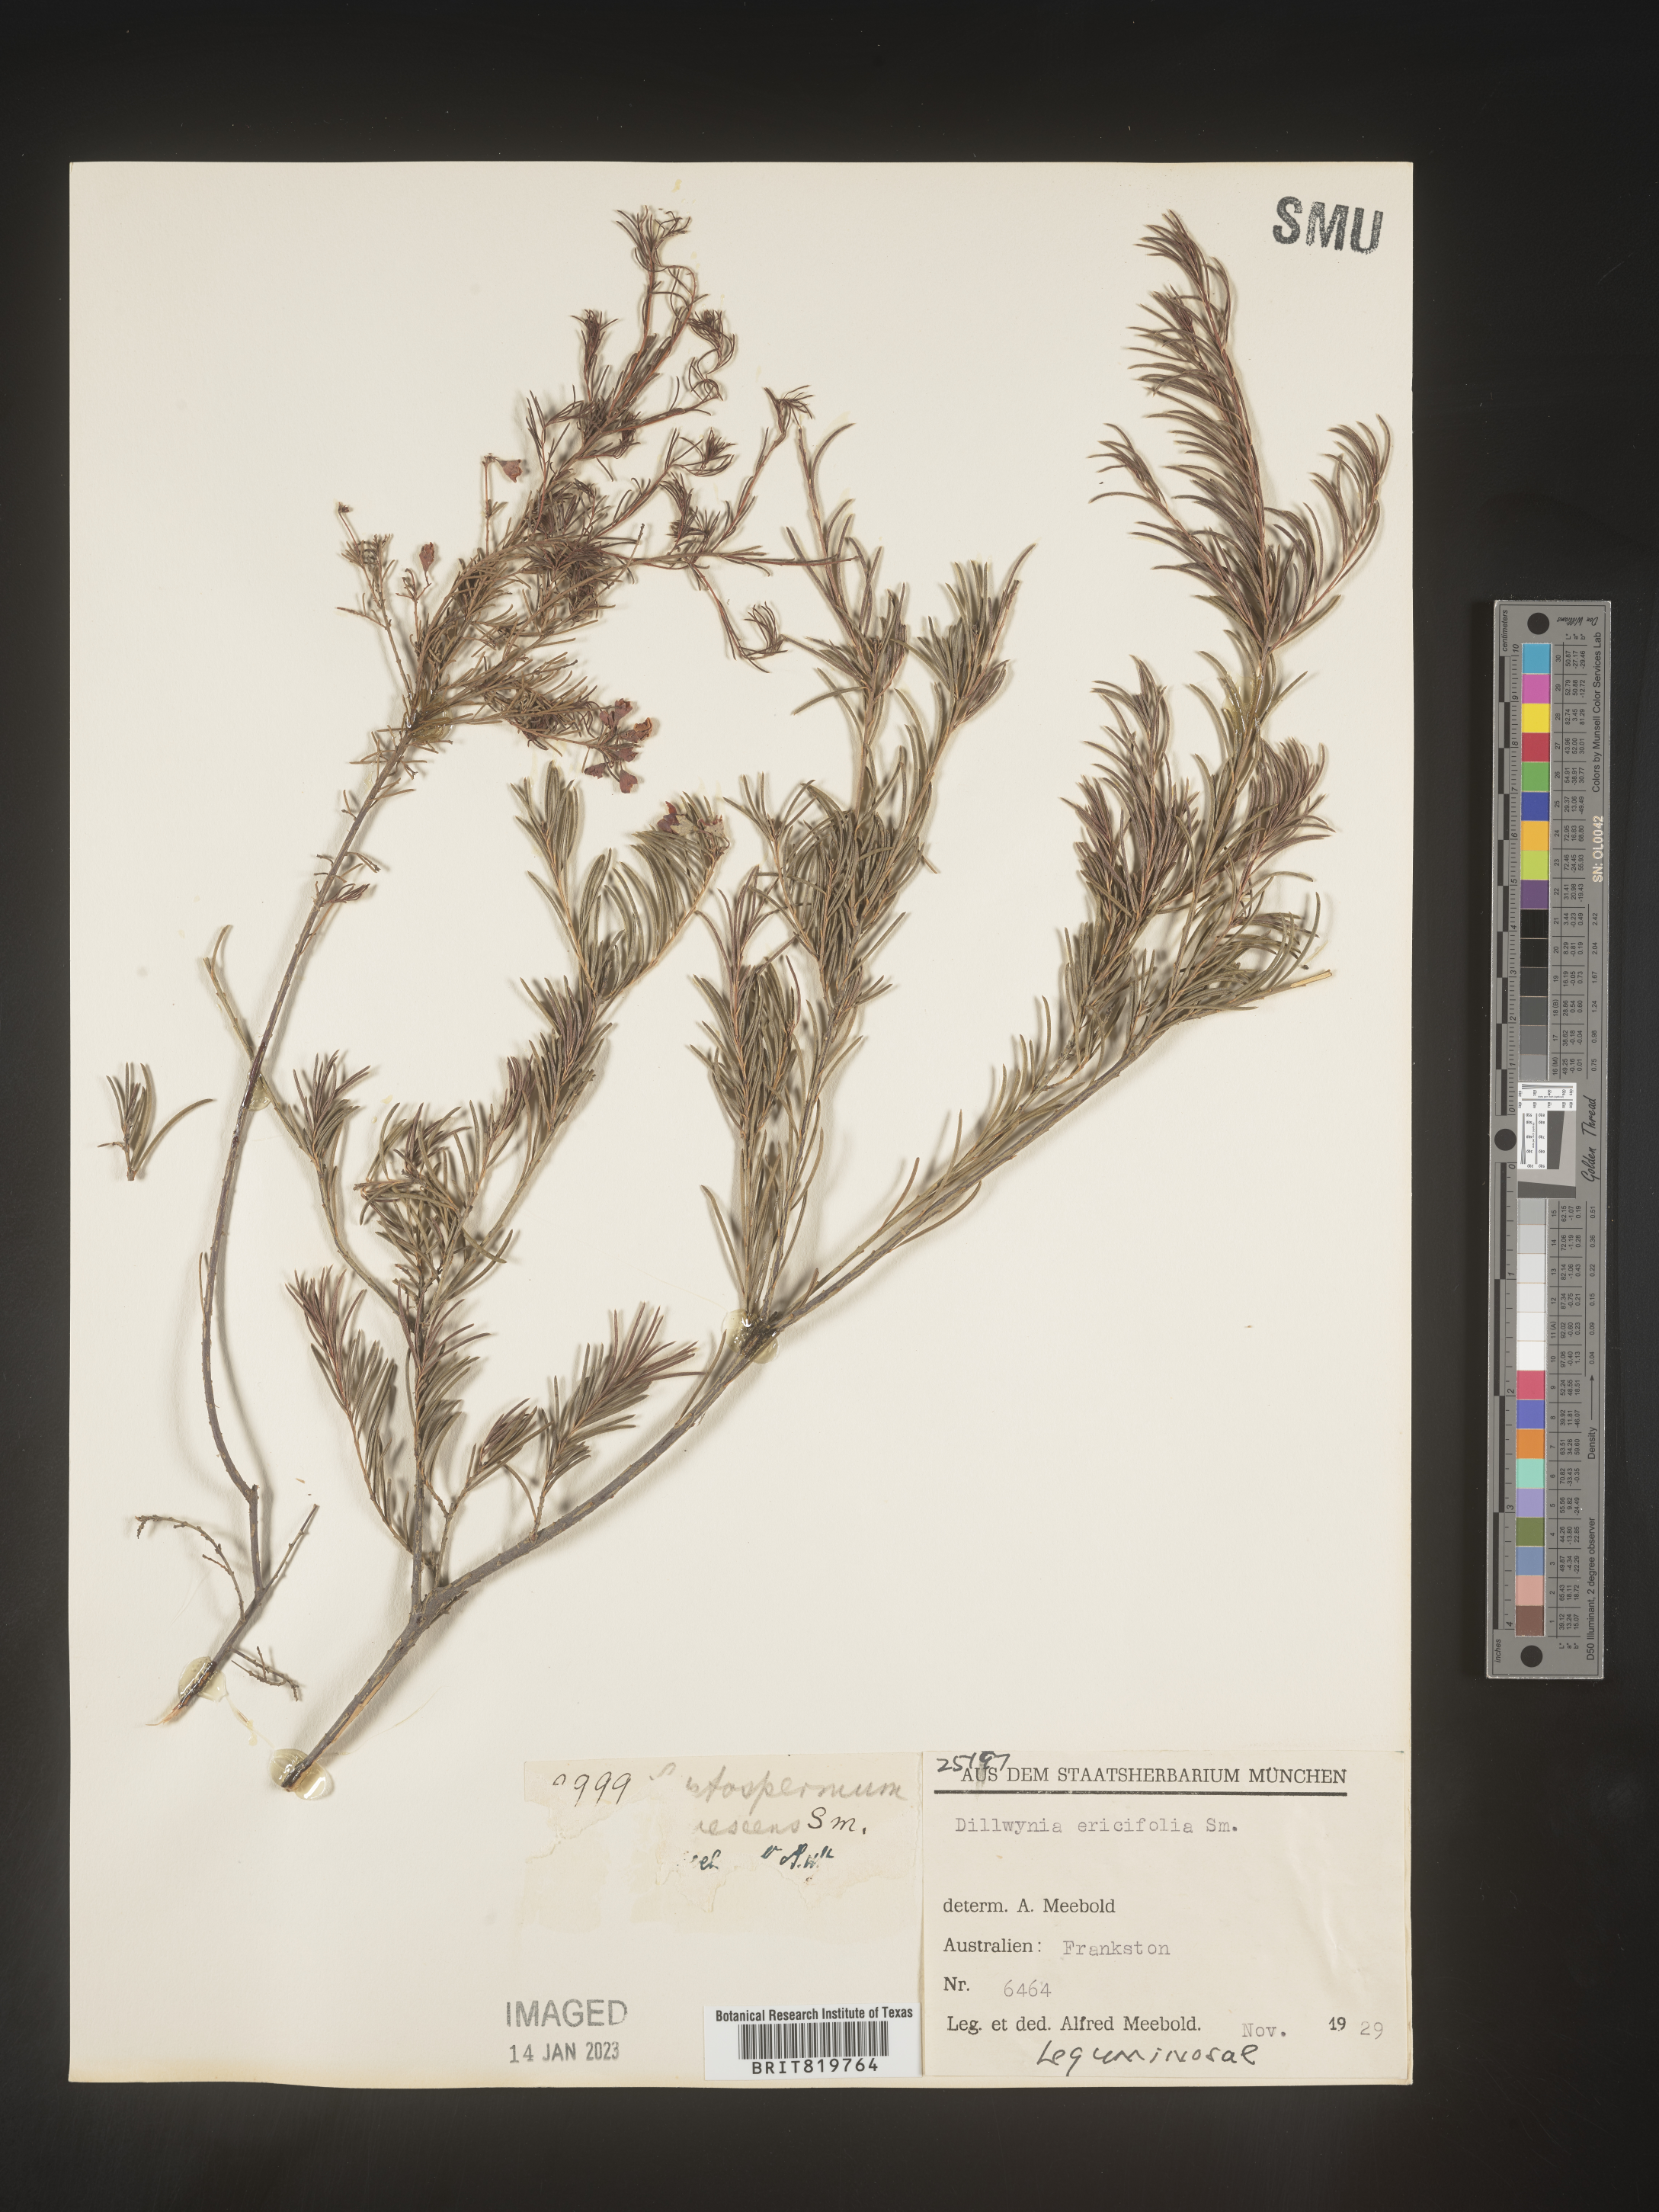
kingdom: Plantae
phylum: Tracheophyta
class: Magnoliopsida
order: Fabales
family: Fabaceae
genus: Dillwynia
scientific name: Dillwynia
